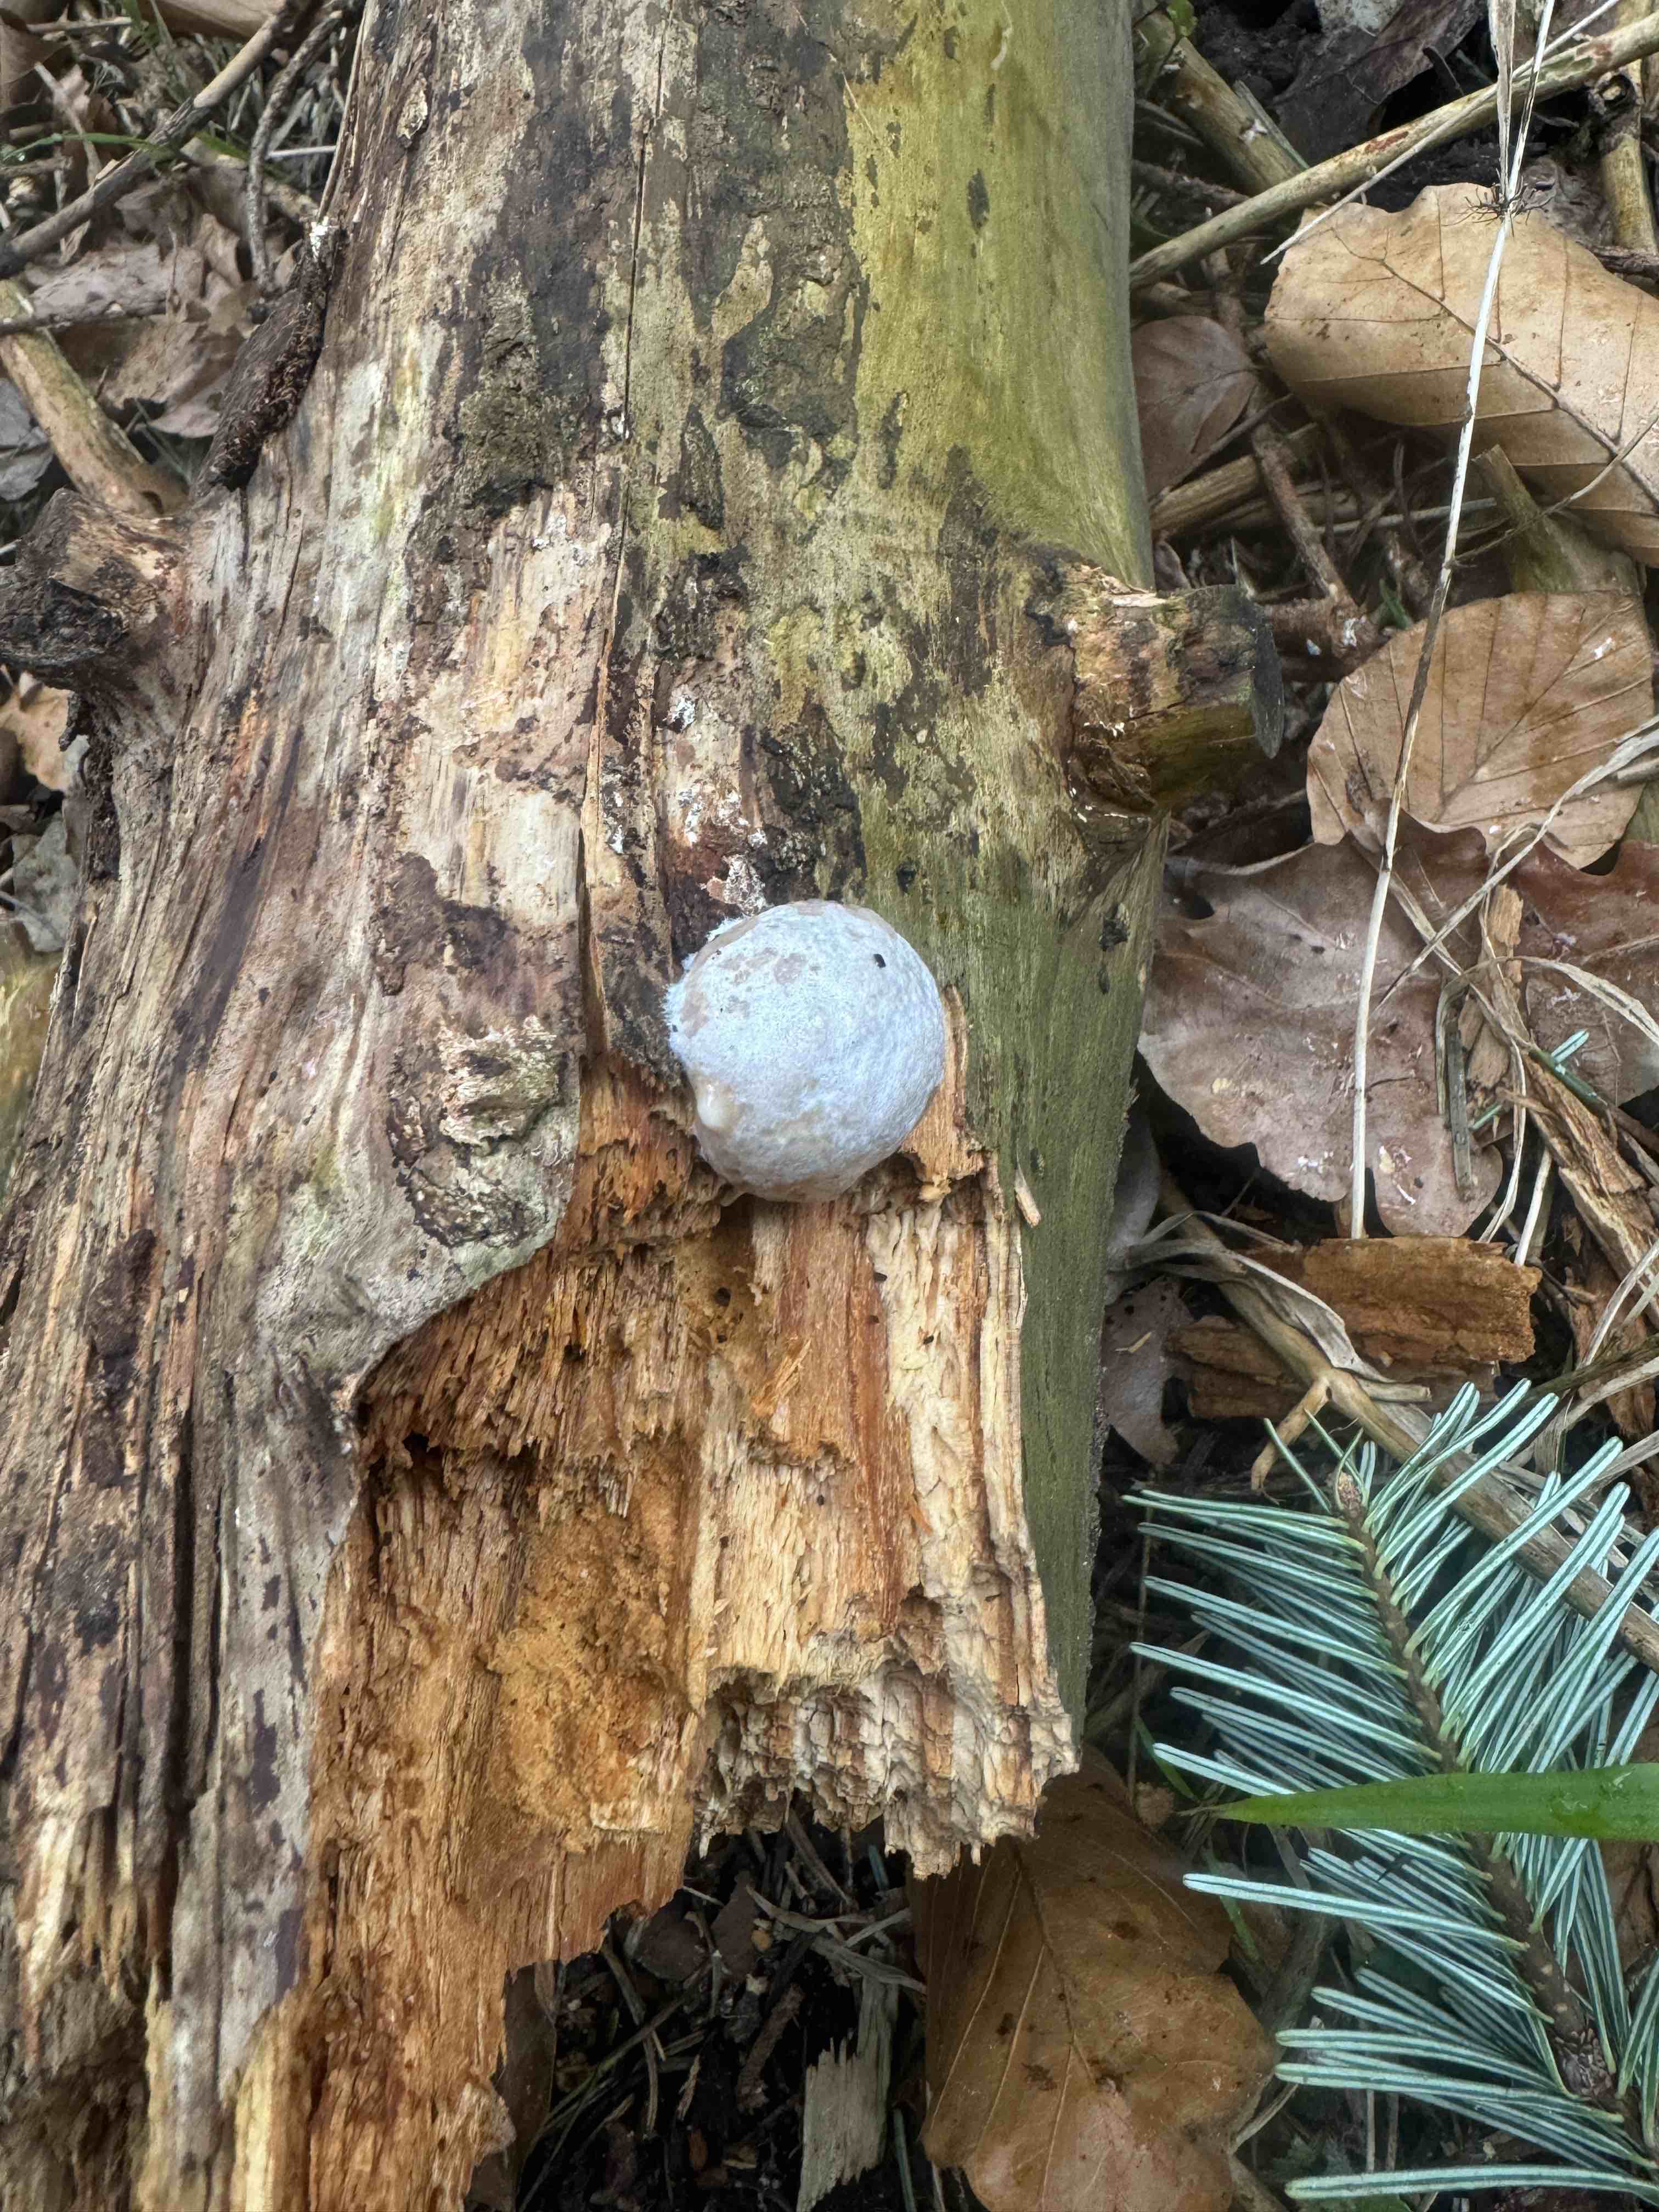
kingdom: Protozoa
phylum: Mycetozoa
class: Myxomycetes
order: Cribrariales
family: Tubiferaceae
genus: Reticularia
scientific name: Reticularia lycoperdon
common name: skinnende støvpude
